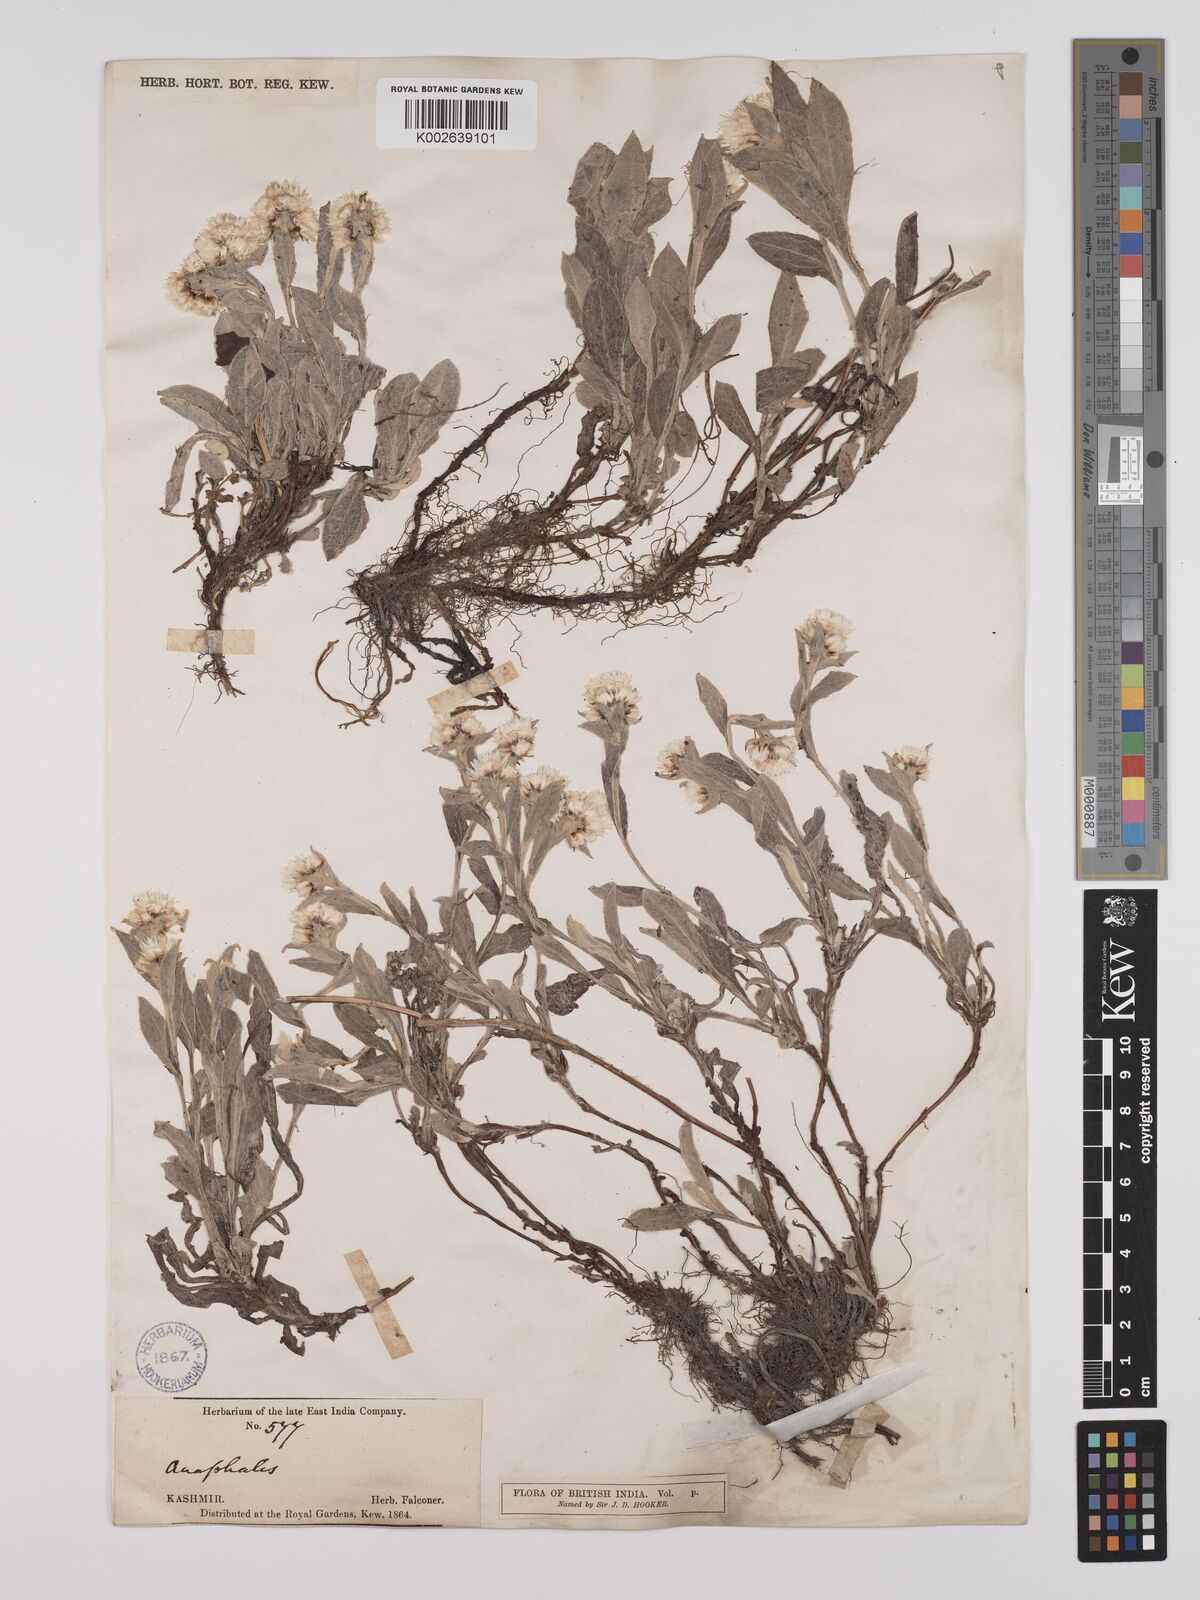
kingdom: Plantae
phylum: Tracheophyta
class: Magnoliopsida
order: Asterales
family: Asteraceae
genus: Anaphalioides
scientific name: Anaphalioides trinervis
